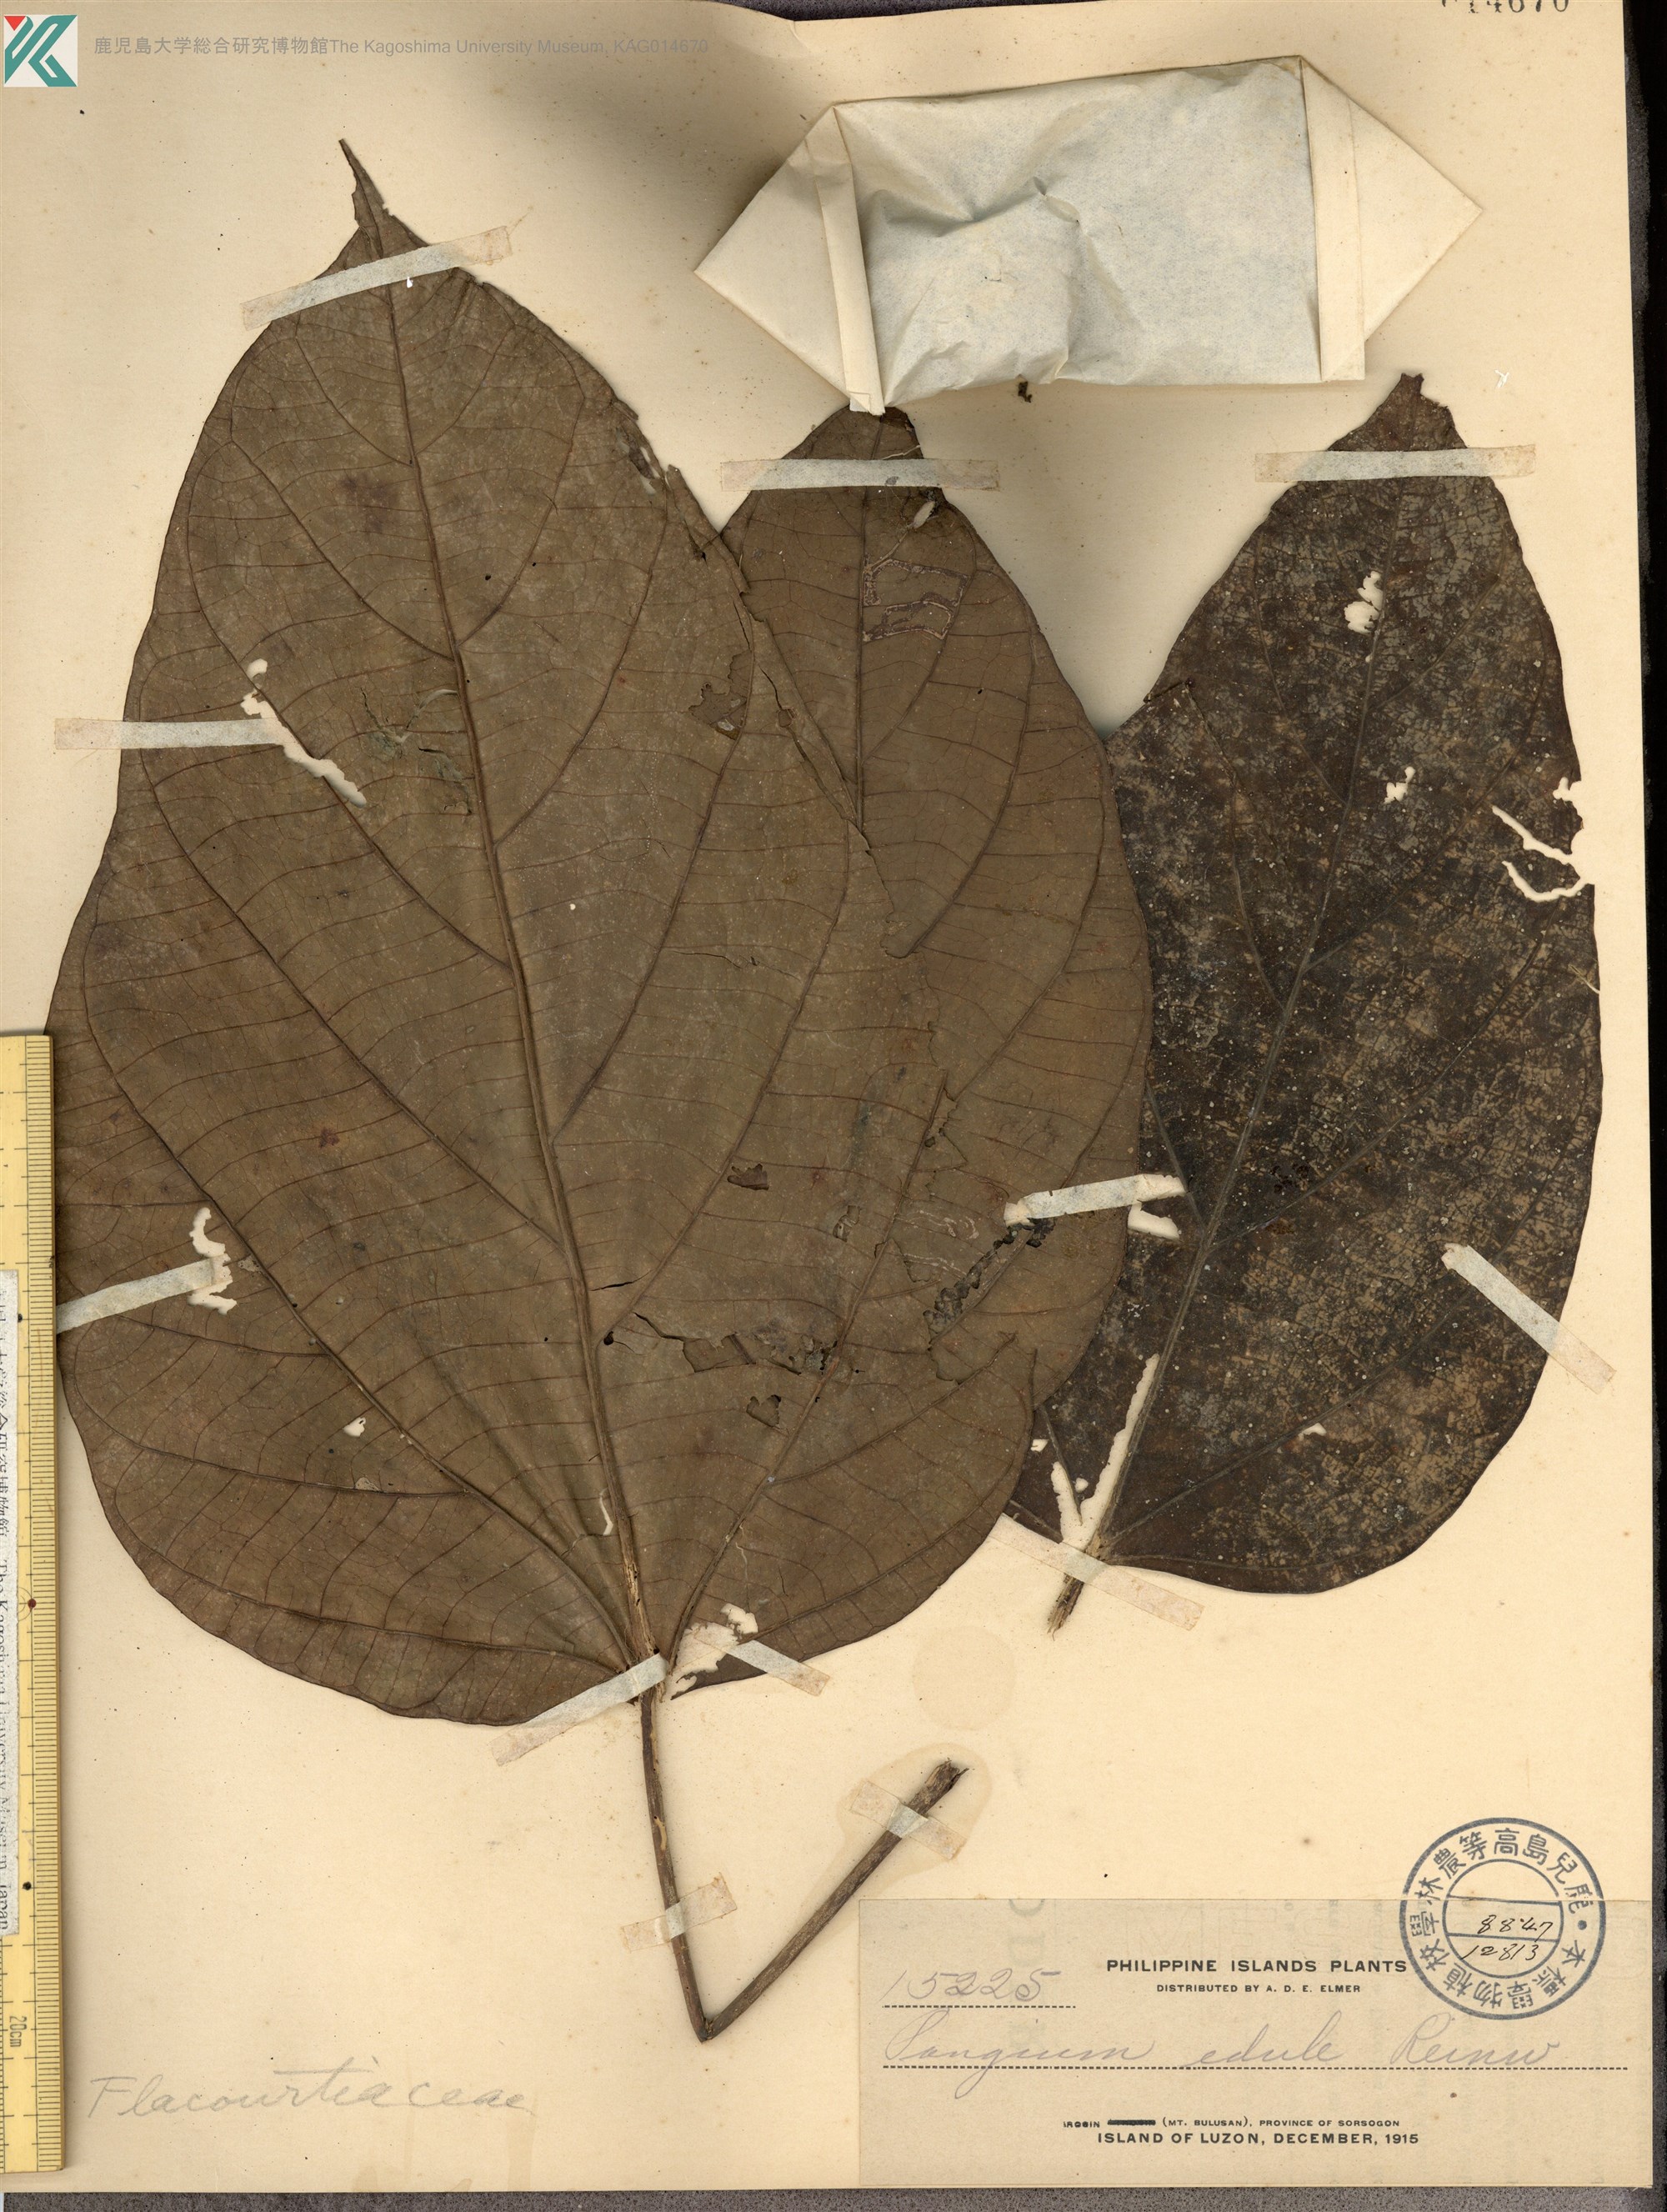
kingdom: Plantae
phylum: Tracheophyta
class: Magnoliopsida
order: Malpighiales
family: Achariaceae
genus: Pangium
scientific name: Pangium edule
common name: Football fruit
